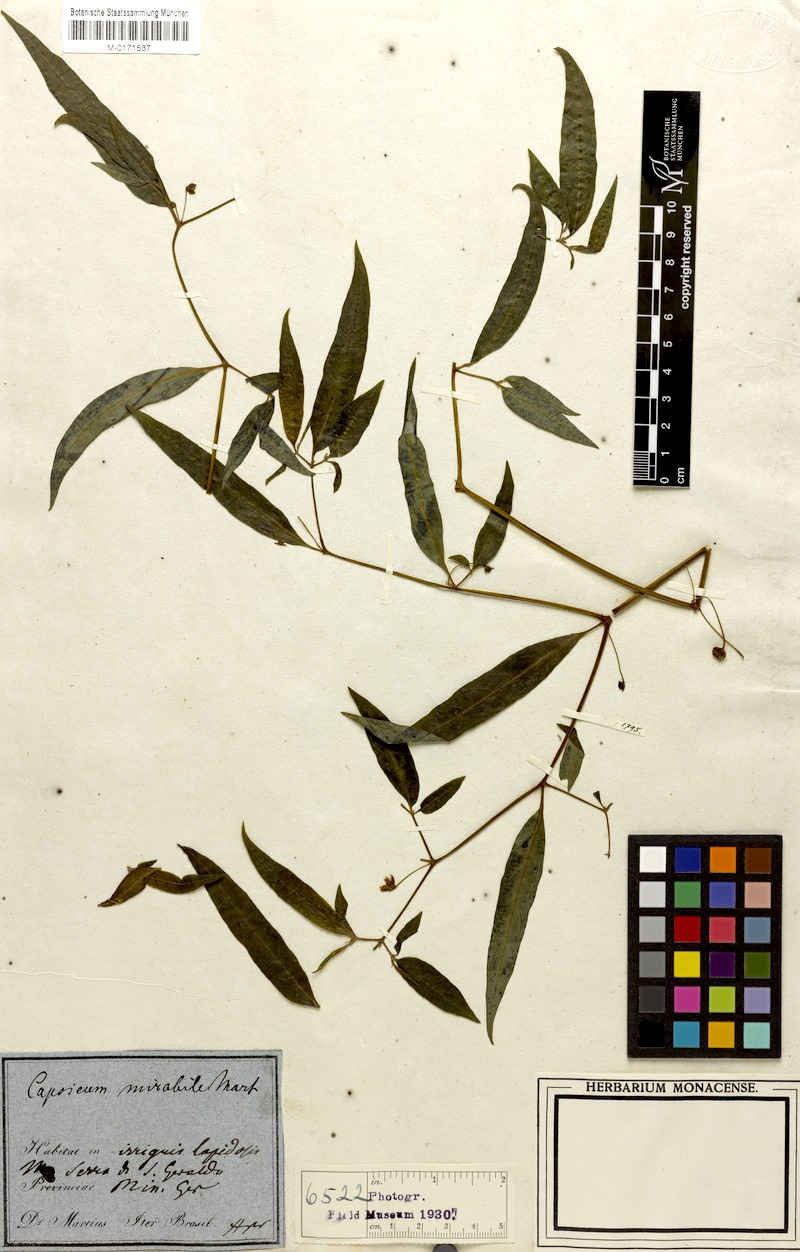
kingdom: Plantae
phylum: Tracheophyta
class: Magnoliopsida
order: Solanales
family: Solanaceae
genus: Capsicum
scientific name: Capsicum mirabile
